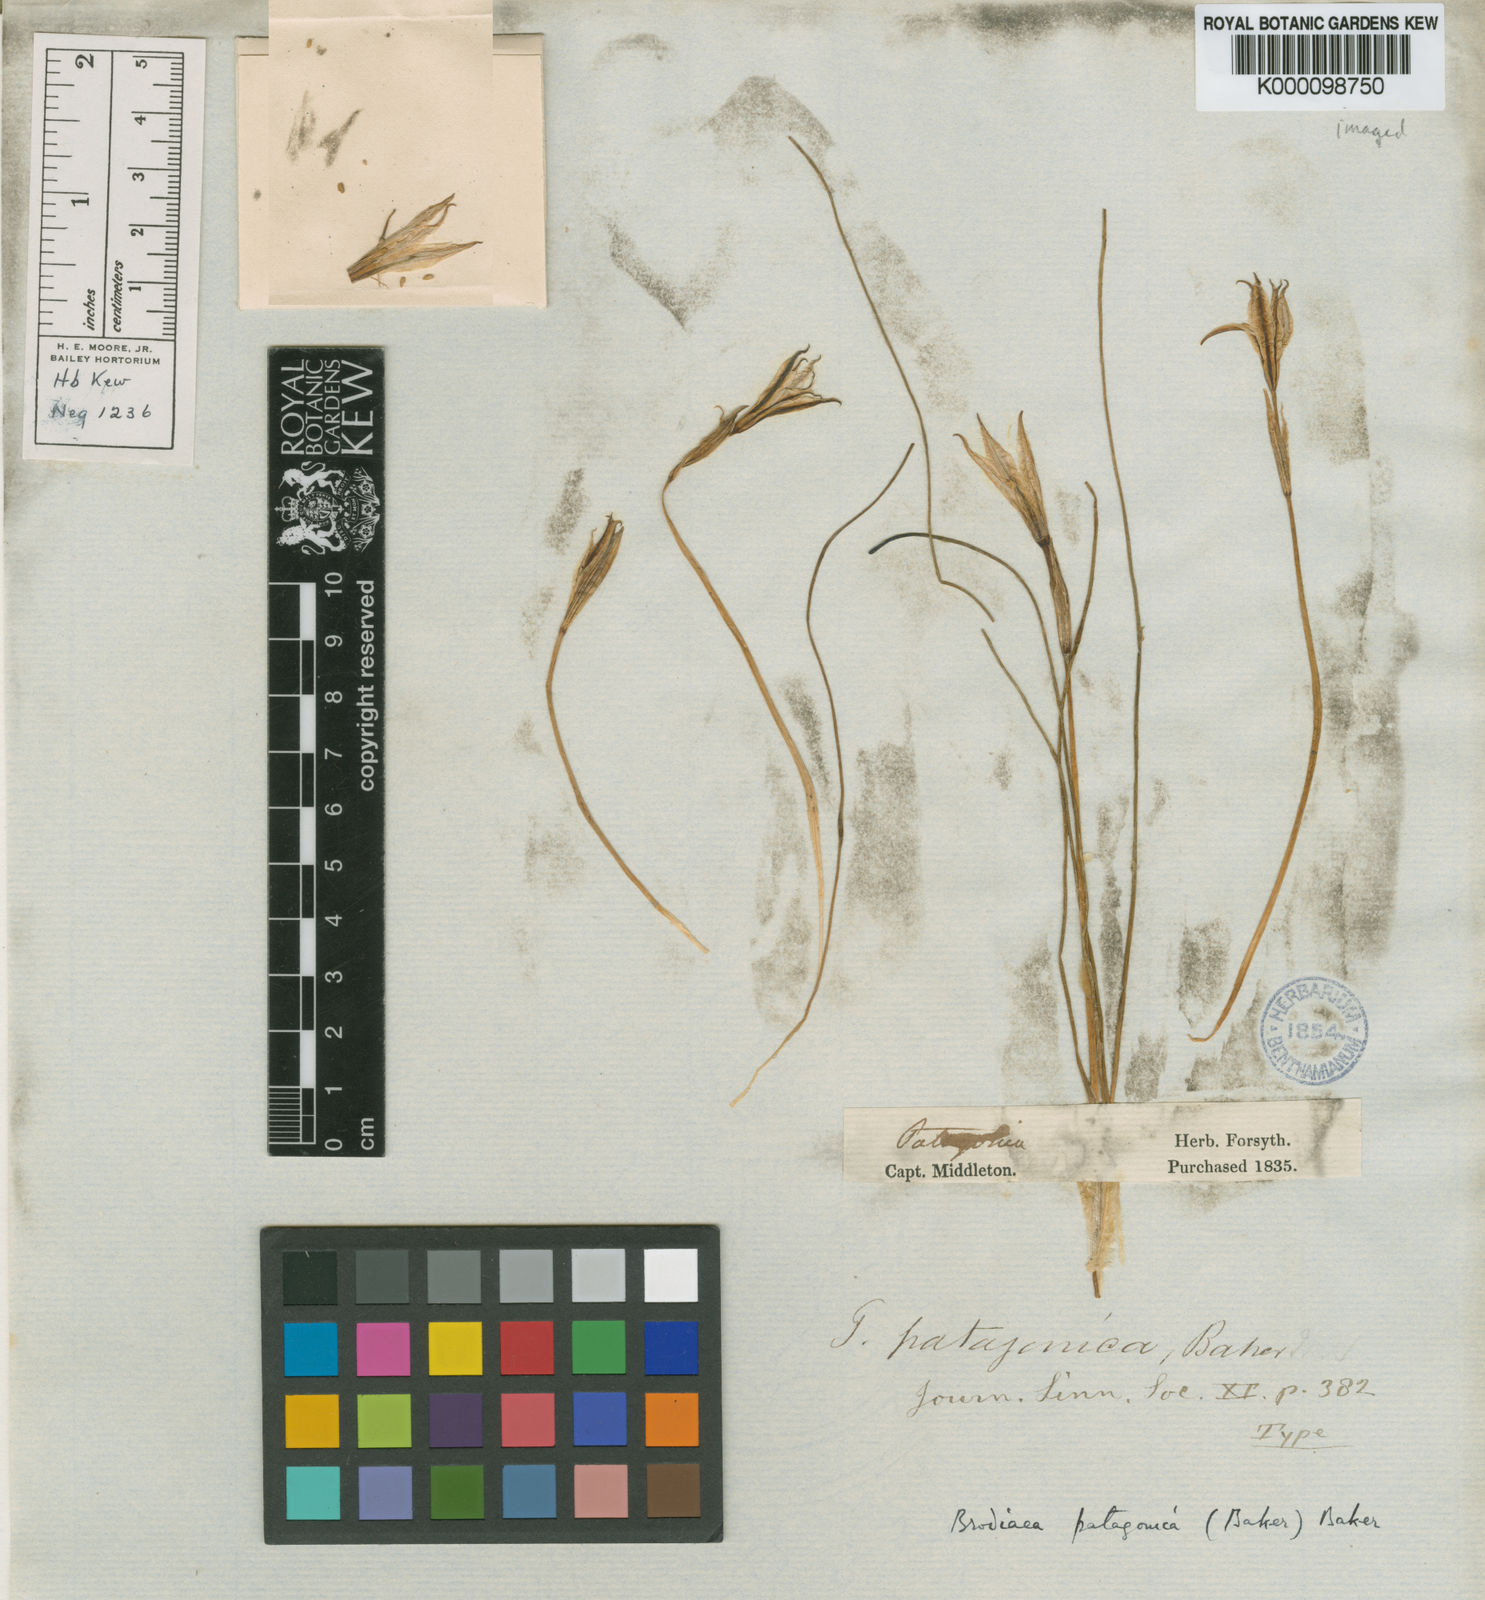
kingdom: Plantae
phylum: Tracheophyta
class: Liliopsida
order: Asparagales
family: Amaryllidaceae
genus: Tristagma
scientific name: Tristagma patagonicum
